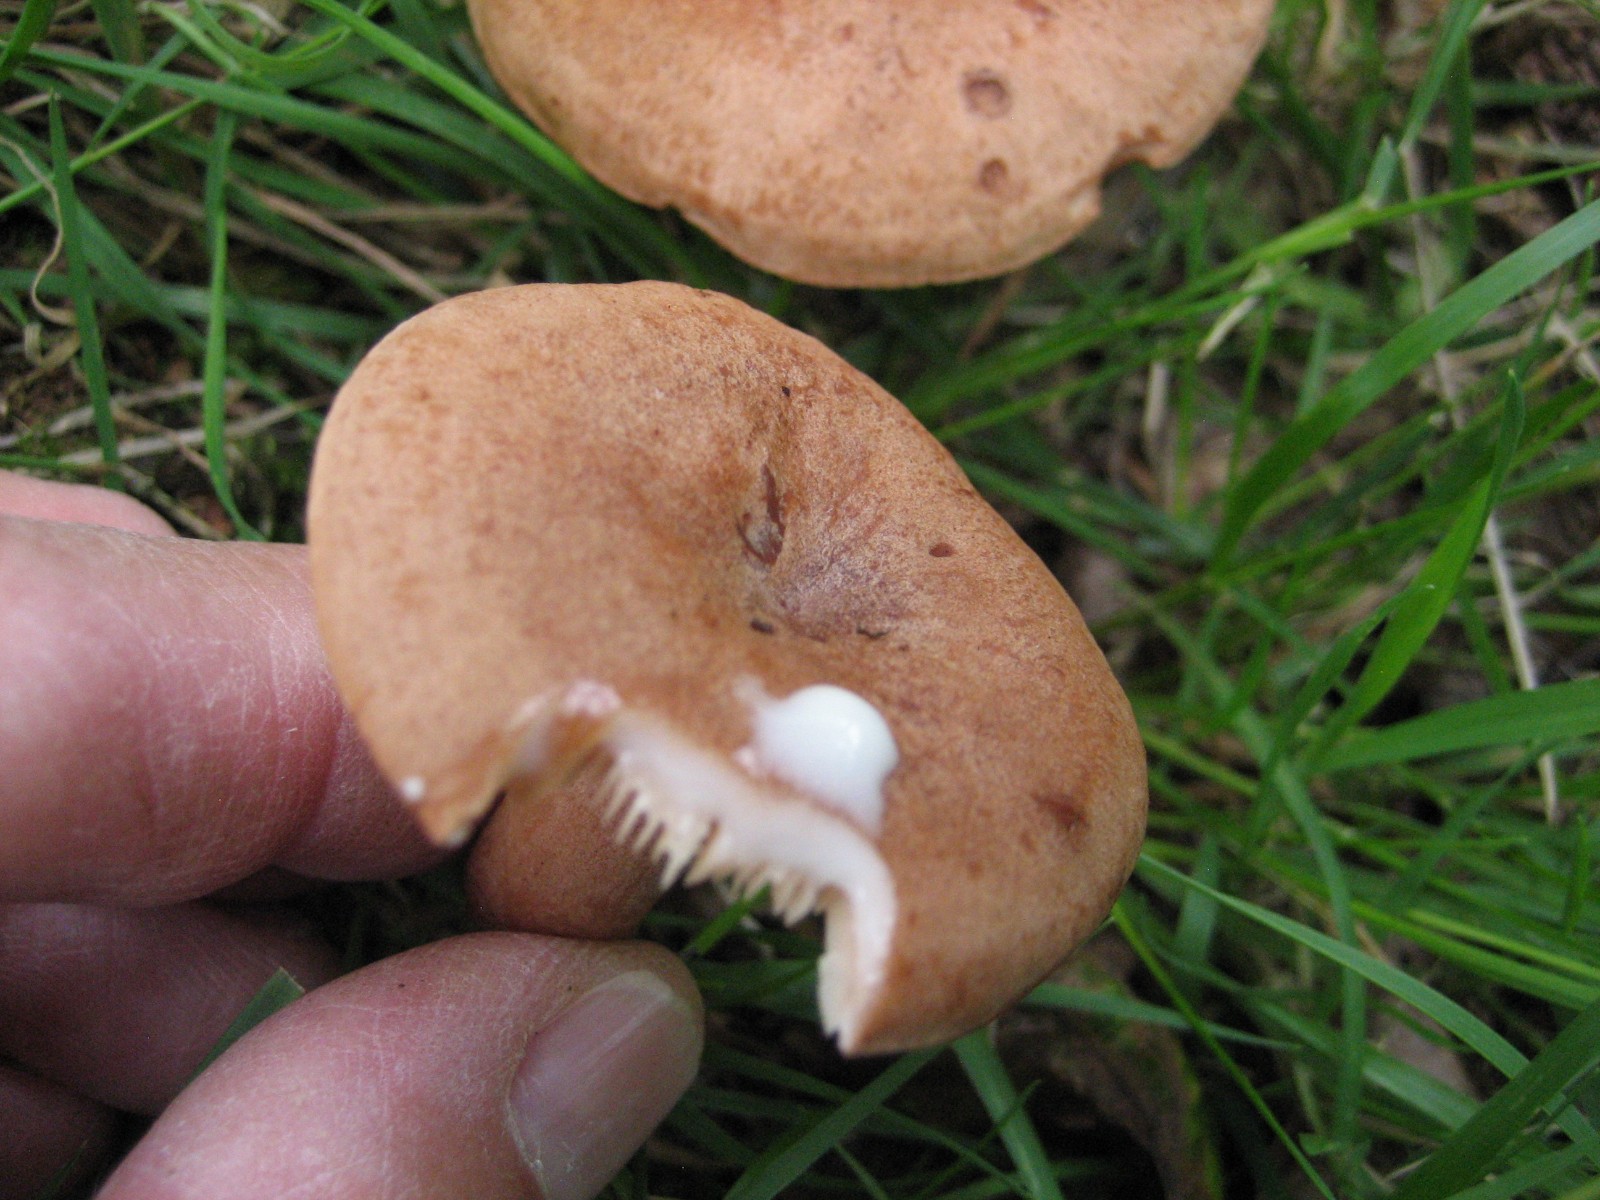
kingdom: Fungi
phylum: Basidiomycota
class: Agaricomycetes
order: Russulales
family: Russulaceae
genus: Lactarius
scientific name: Lactarius quietus
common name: ege-mælkehat
